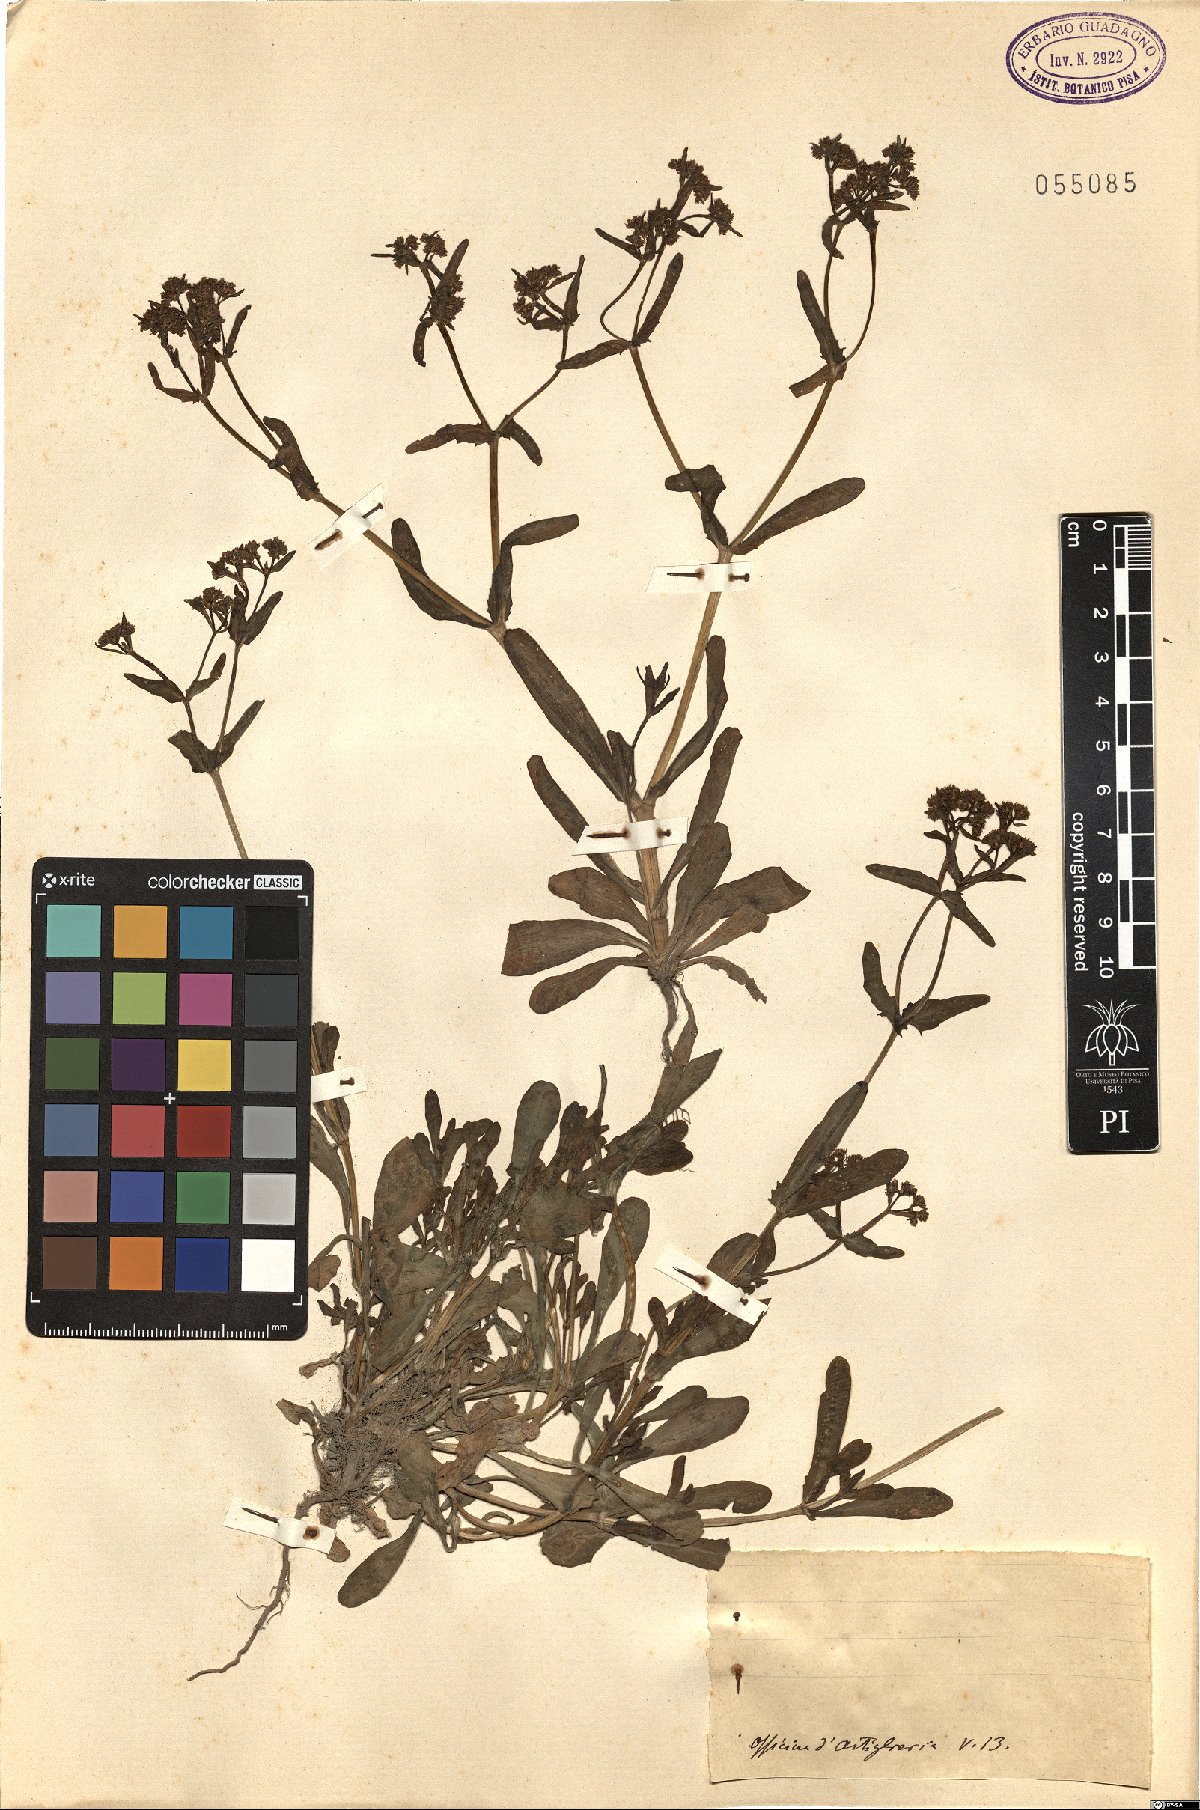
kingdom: Plantae
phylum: Tracheophyta
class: Magnoliopsida
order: Dipsacales
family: Caprifoliaceae
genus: Valerianella
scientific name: Valerianella
